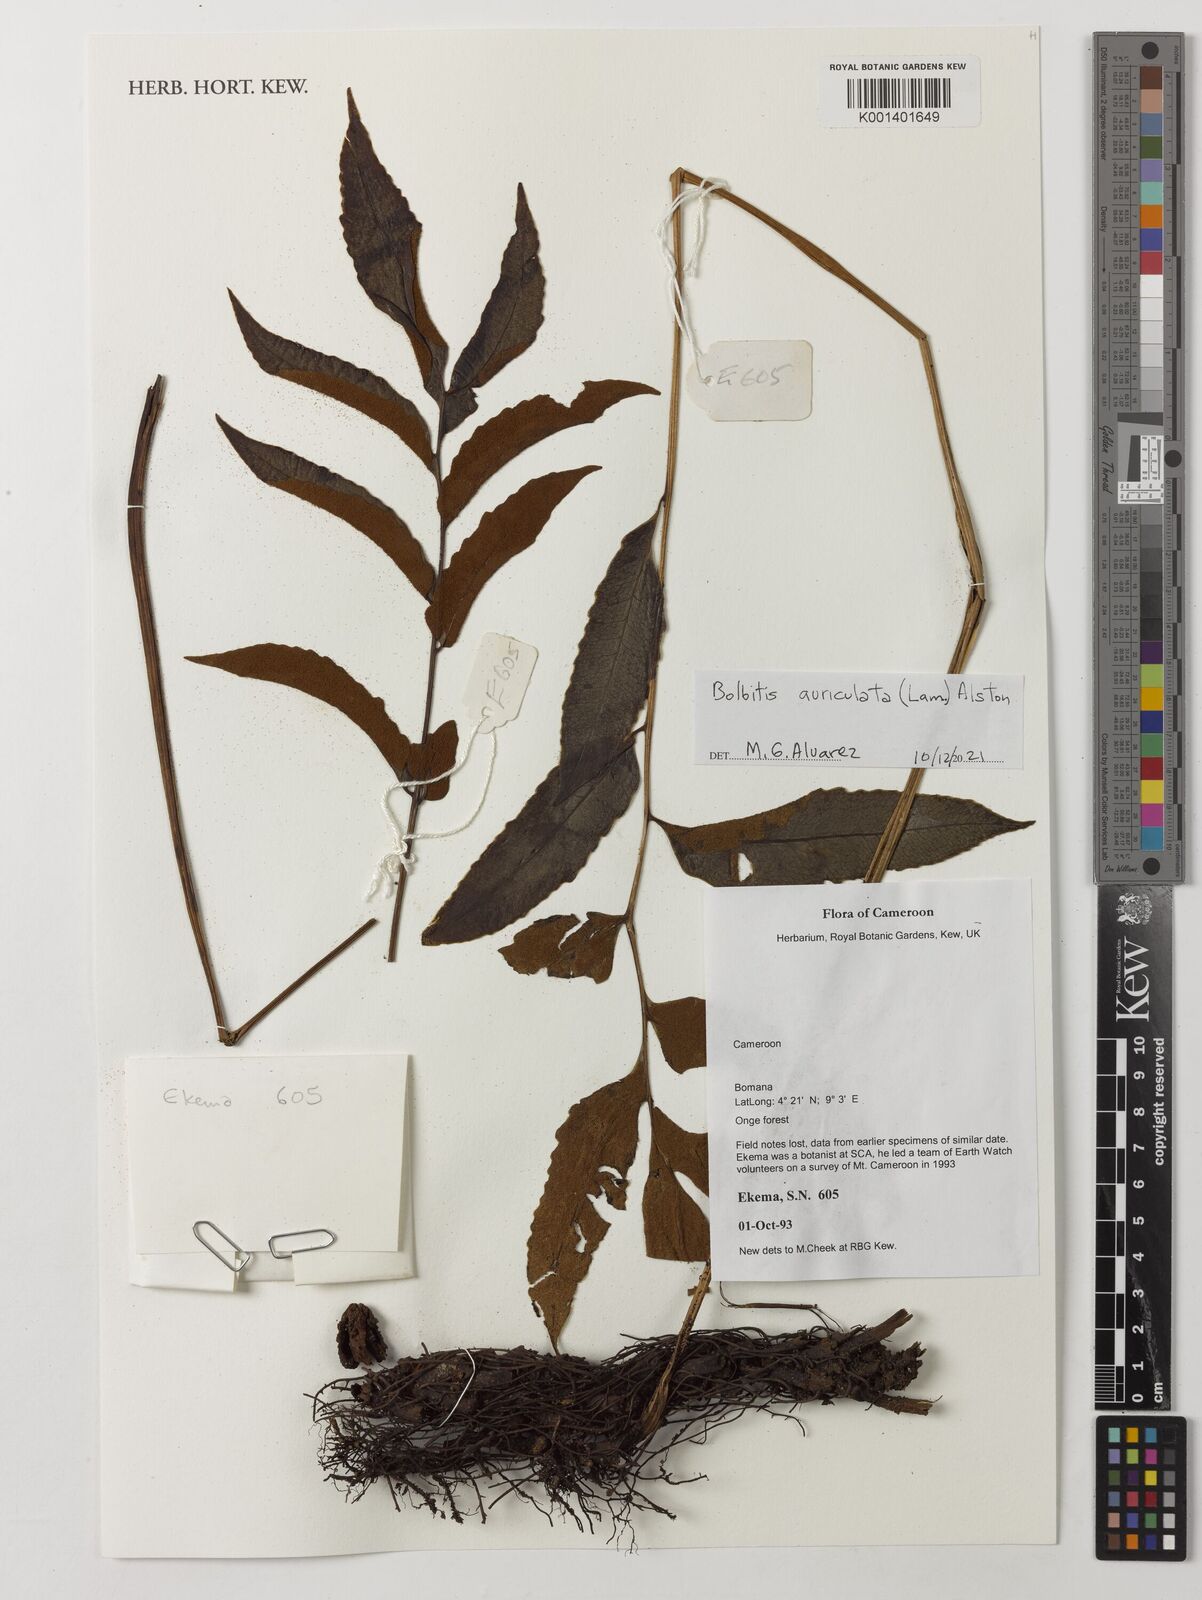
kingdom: Plantae
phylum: Tracheophyta
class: Polypodiopsida
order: Polypodiales
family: Dryopteridaceae
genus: Bolbitis
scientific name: Bolbitis auriculata
